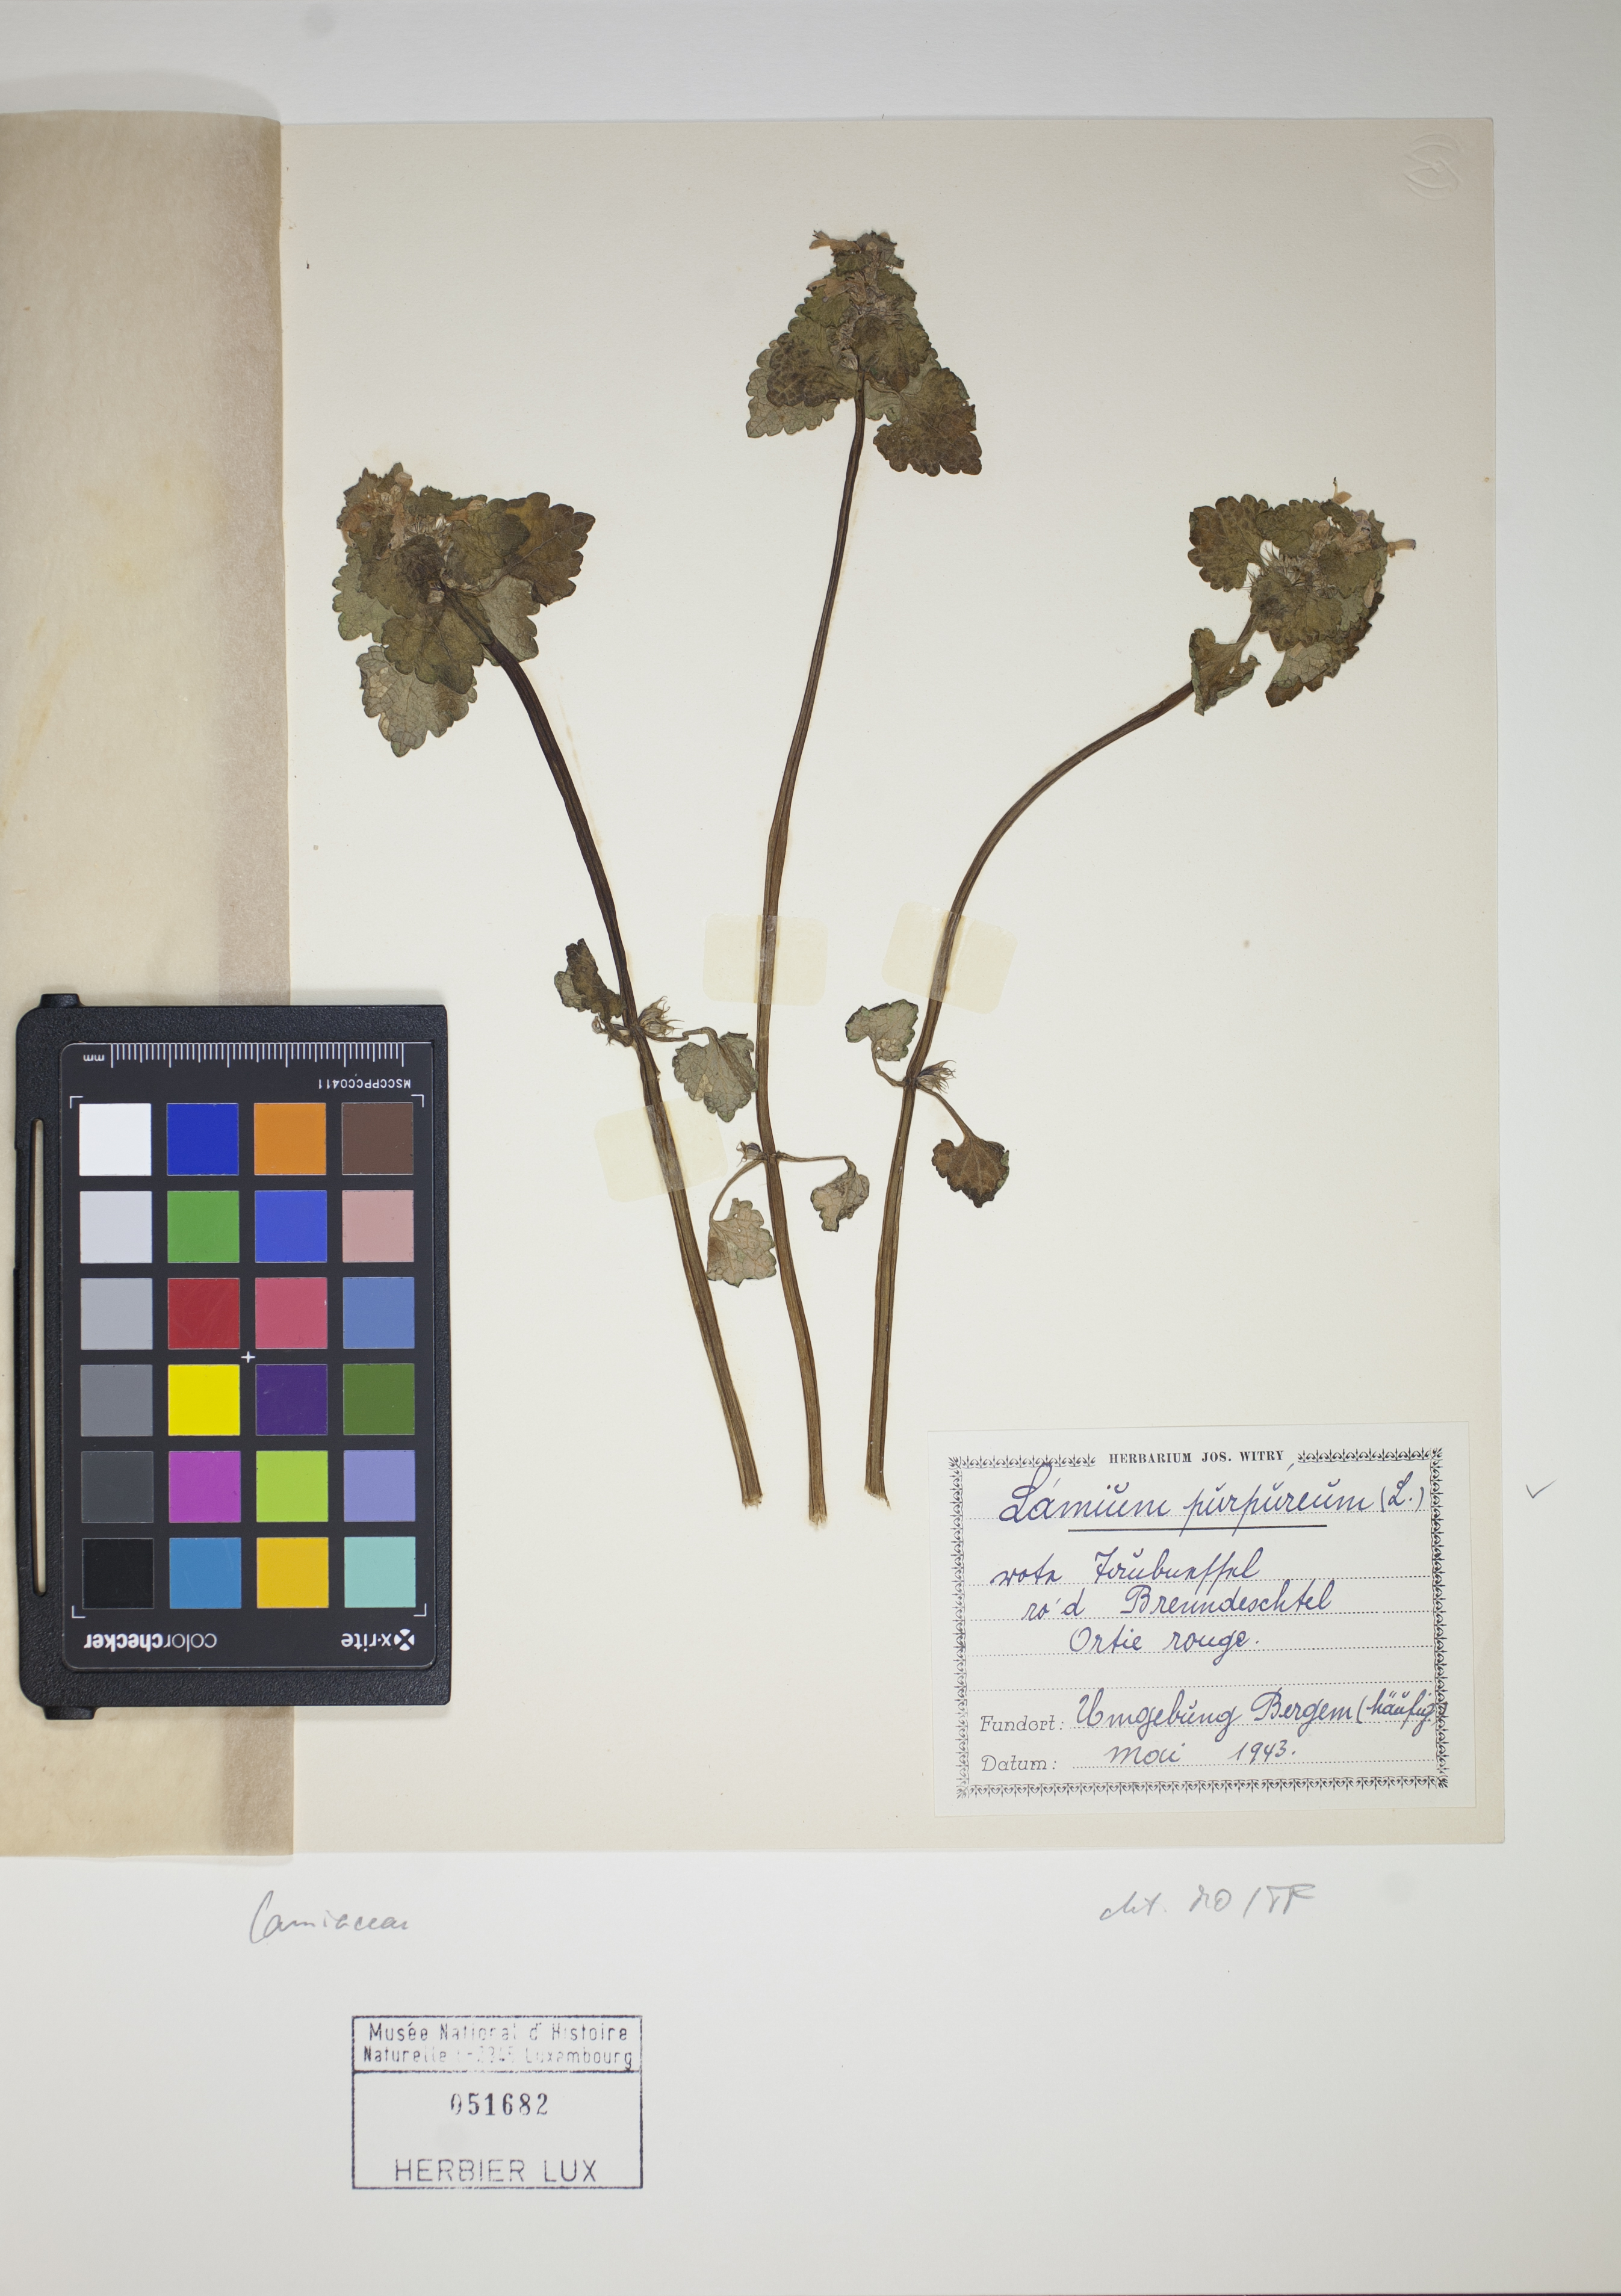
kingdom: Plantae
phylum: Tracheophyta
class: Magnoliopsida
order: Lamiales
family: Lamiaceae
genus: Lamium
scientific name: Lamium purpureum
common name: Red dead-nettle
